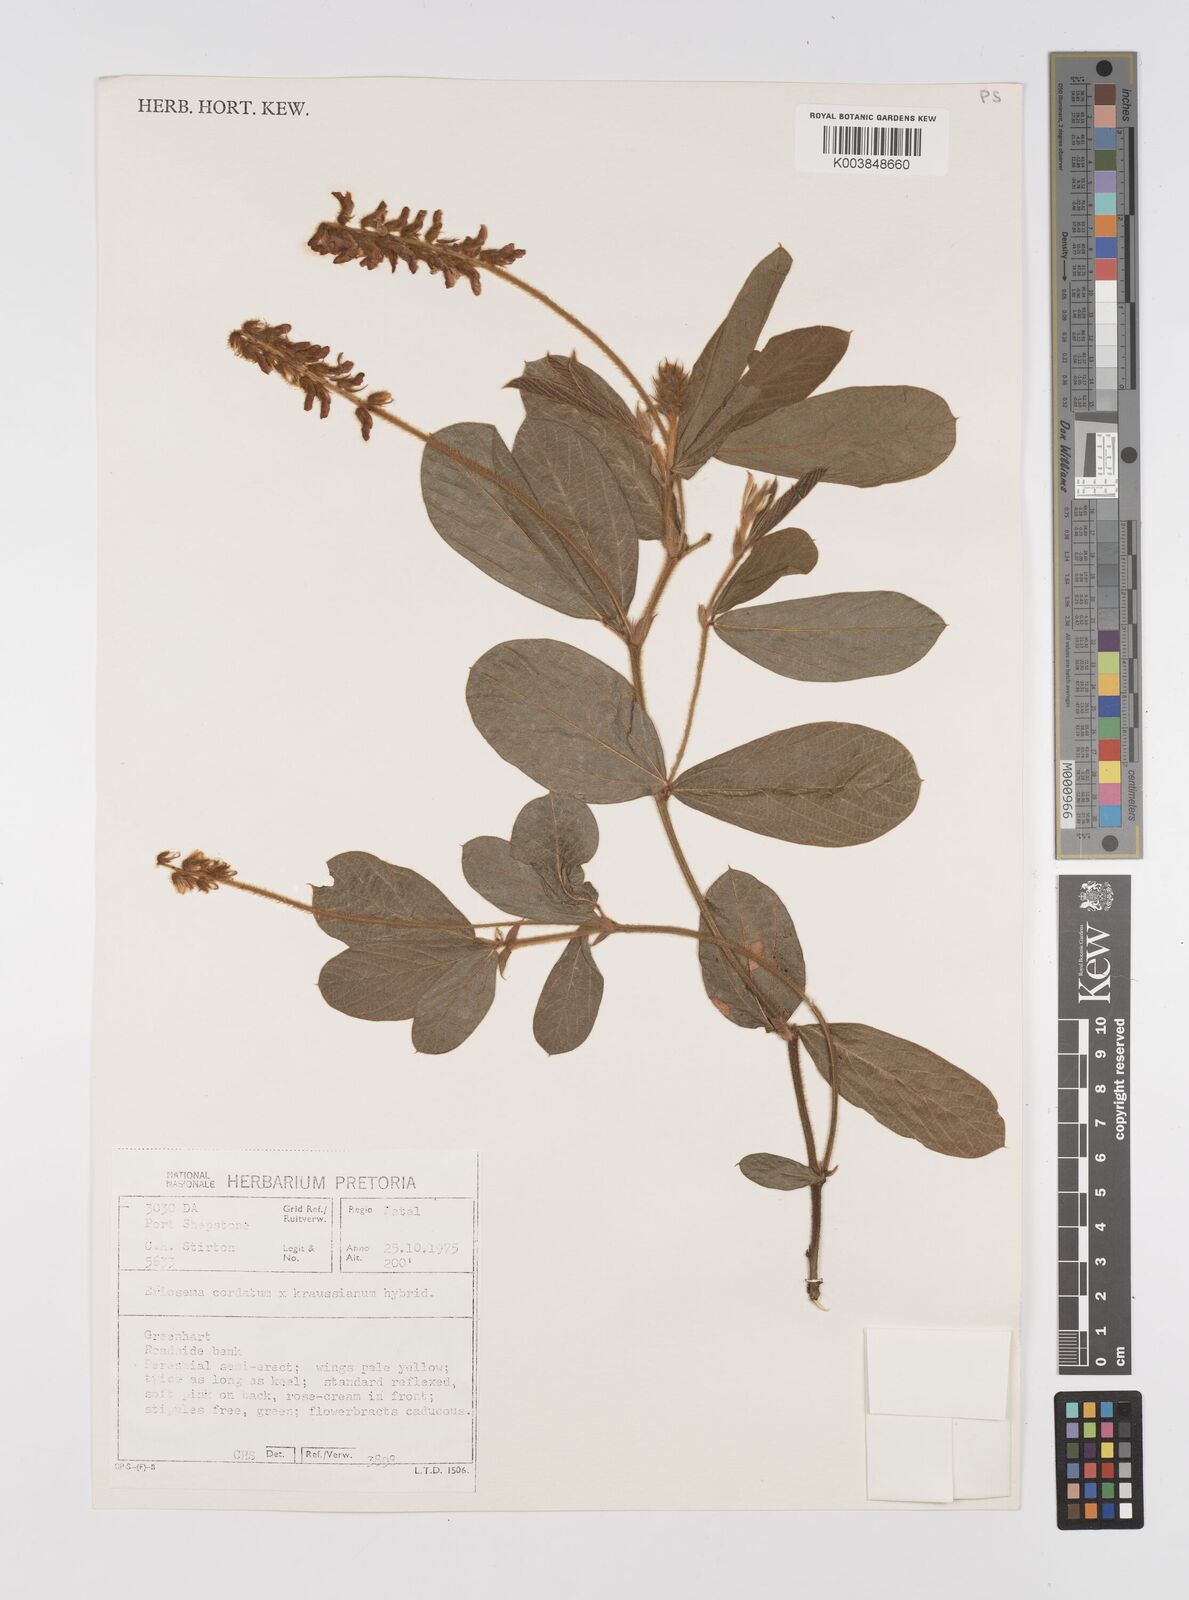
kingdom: Plantae
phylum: Tracheophyta
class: Magnoliopsida
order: Fabales
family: Fabaceae
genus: Eriosema
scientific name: Eriosema cordatum
